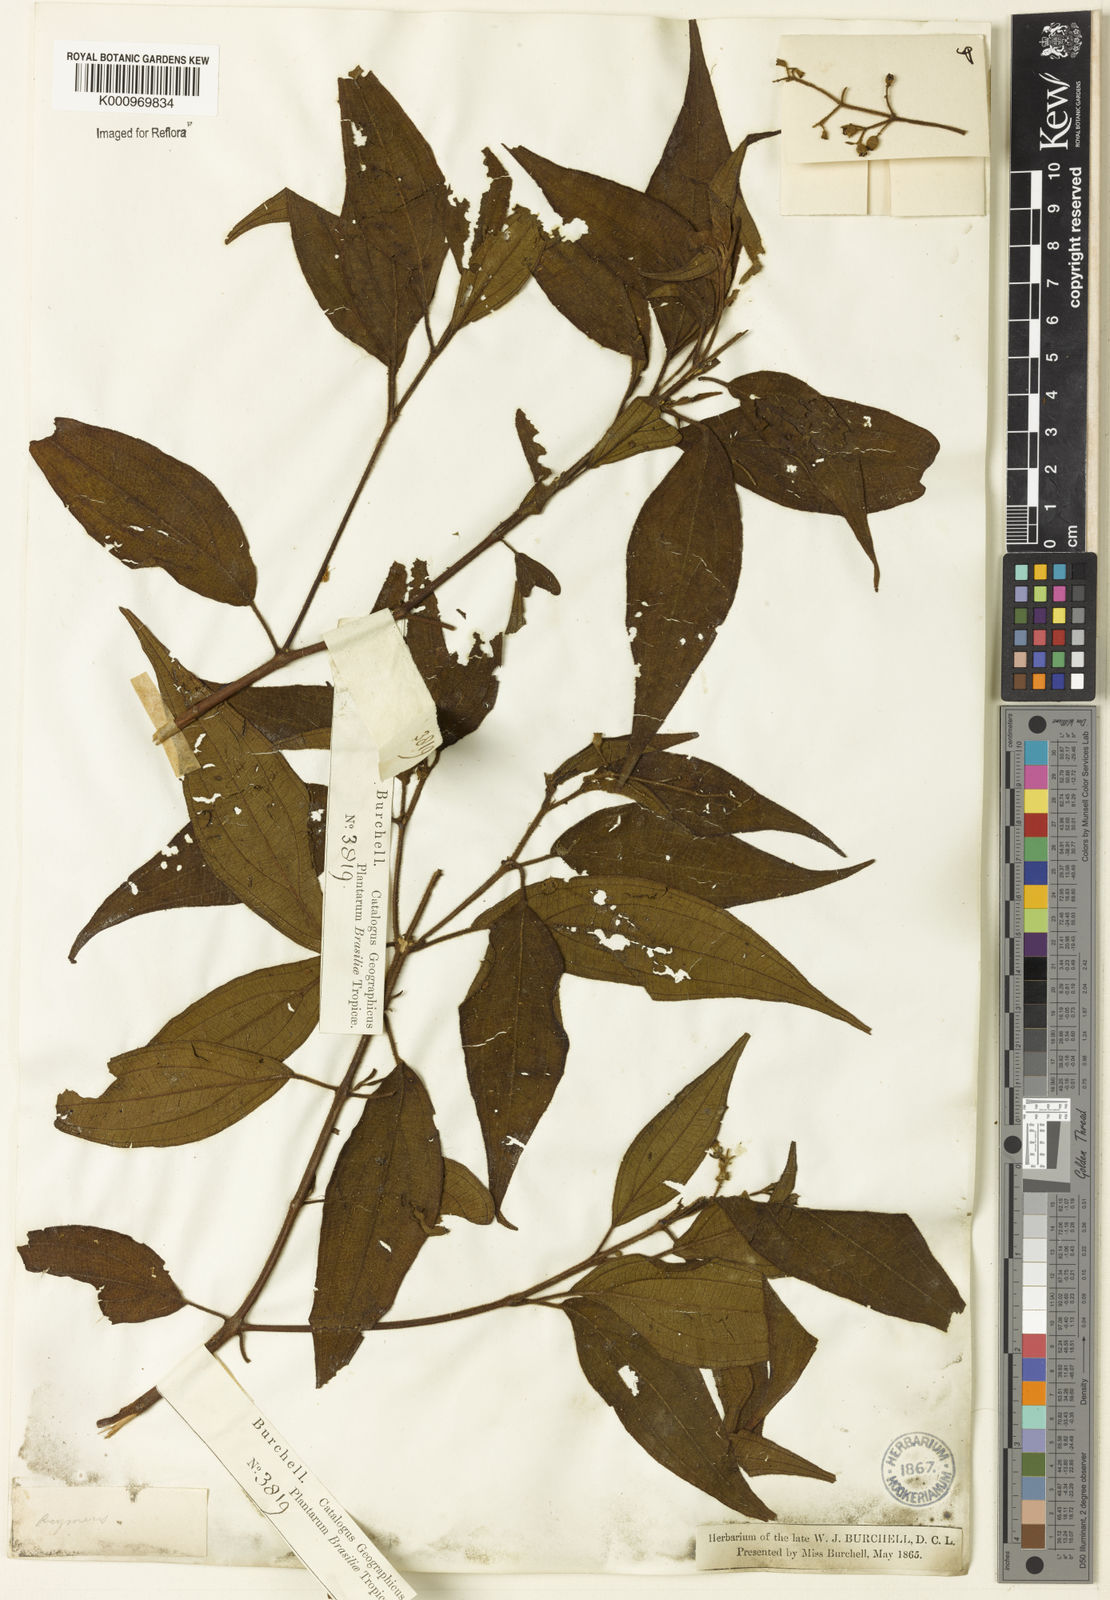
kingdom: Plantae
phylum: Tracheophyta
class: Magnoliopsida
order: Myrtales
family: Melastomataceae
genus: Miconia
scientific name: Miconia
